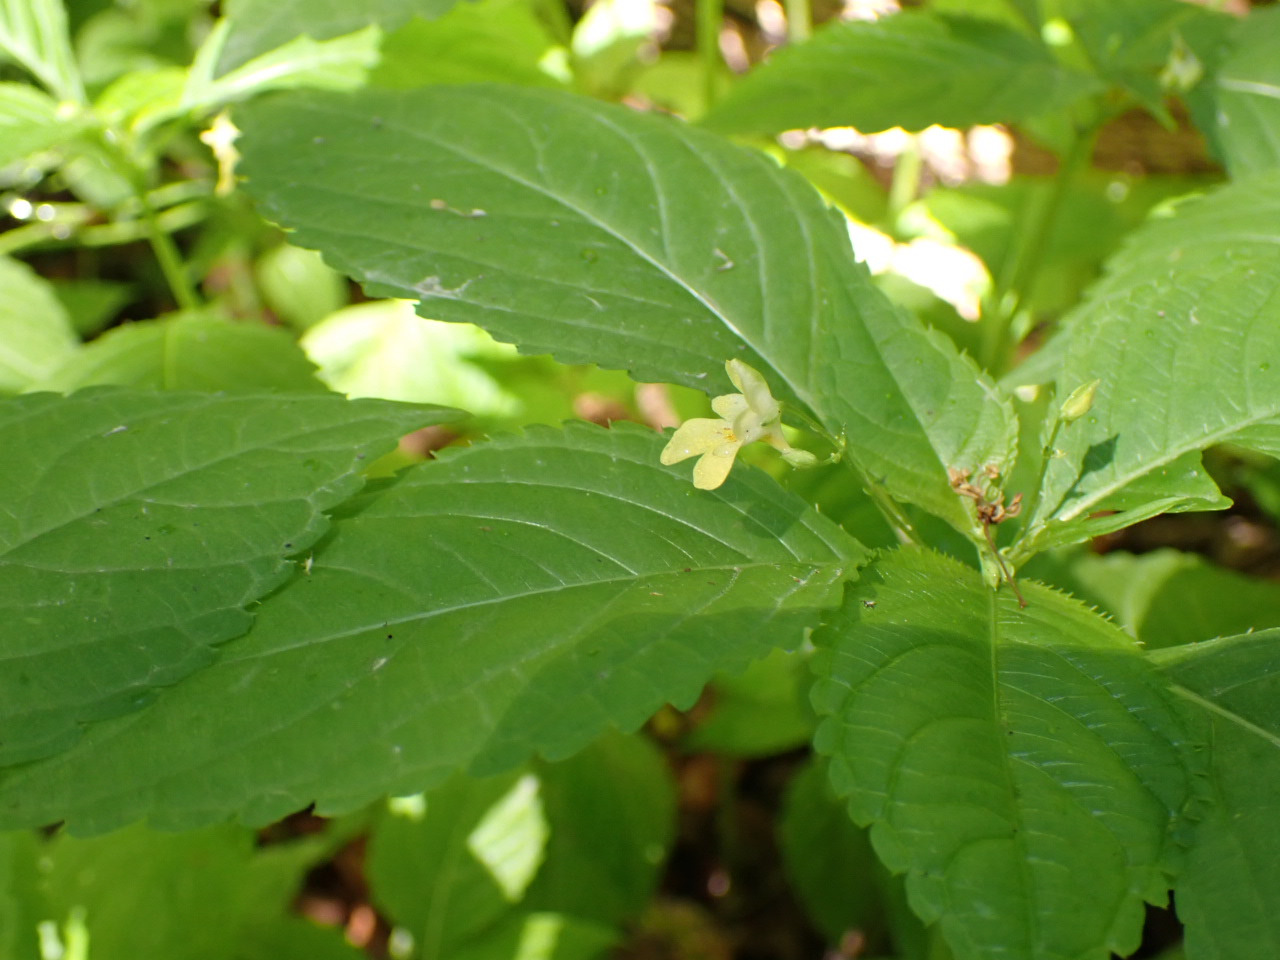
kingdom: Plantae
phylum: Tracheophyta
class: Magnoliopsida
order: Ericales
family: Balsaminaceae
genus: Impatiens
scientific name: Impatiens parviflora
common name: Småblomstret balsamin
